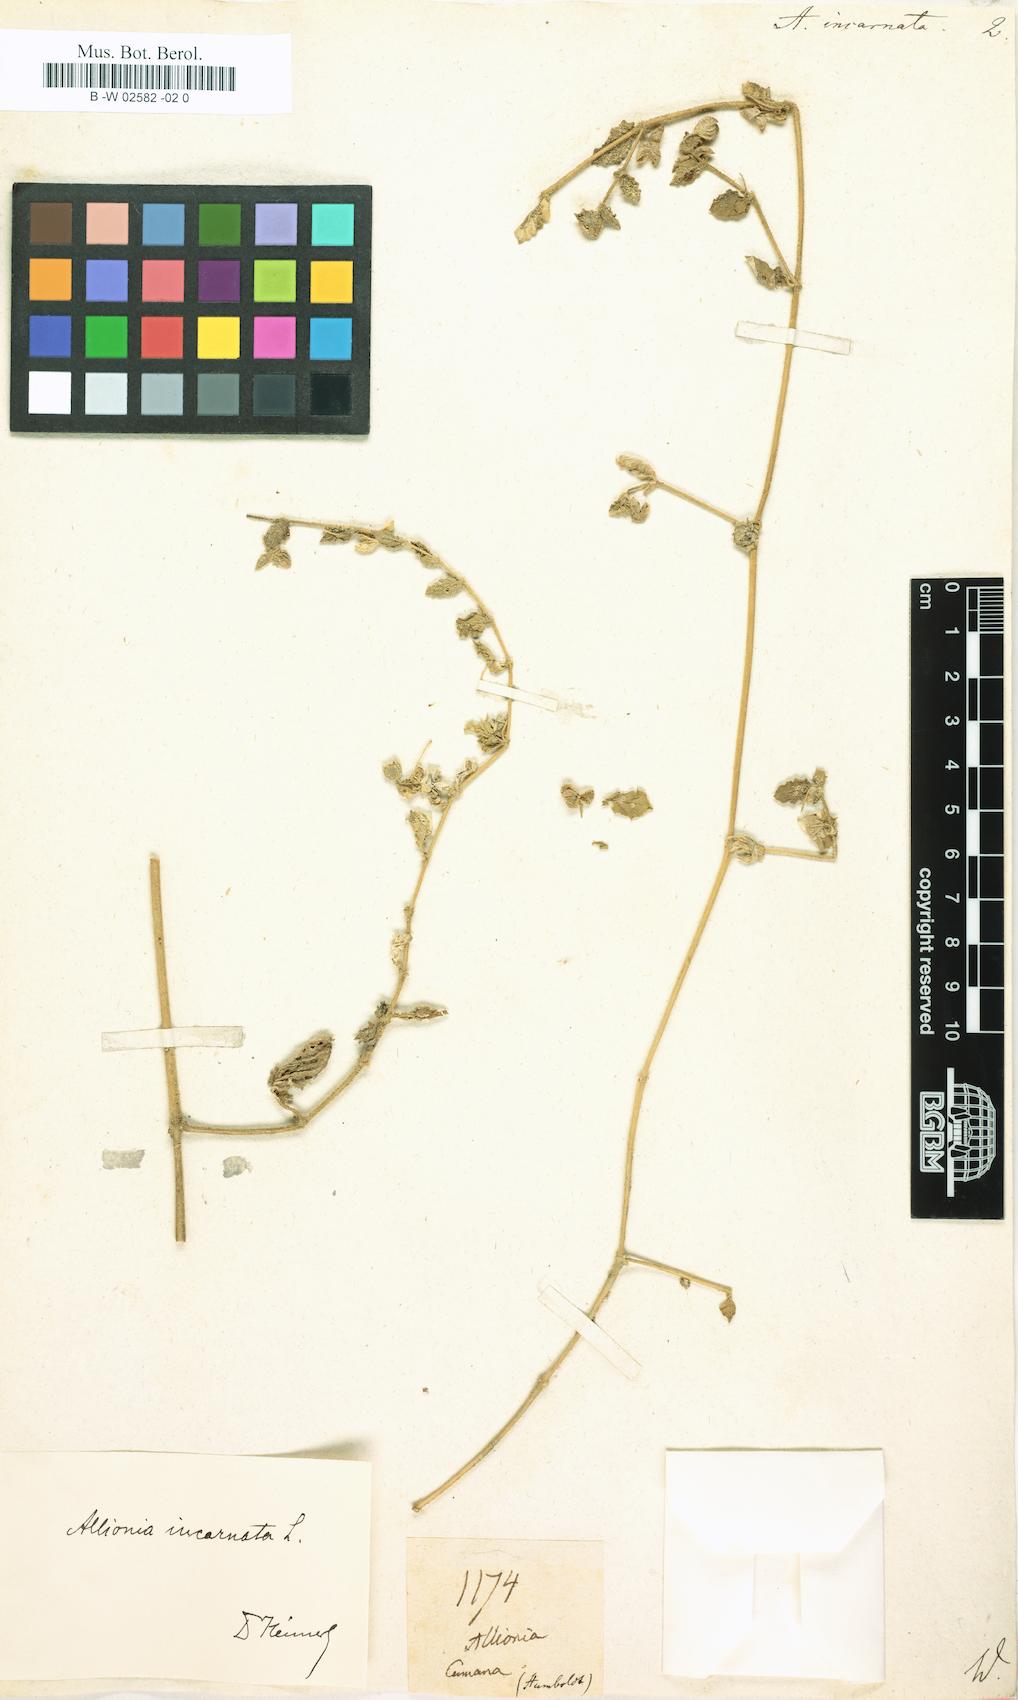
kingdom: Plantae
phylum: Tracheophyta
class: Magnoliopsida
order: Caryophyllales
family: Nyctaginaceae
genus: Allionia
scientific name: Allionia incarnata
